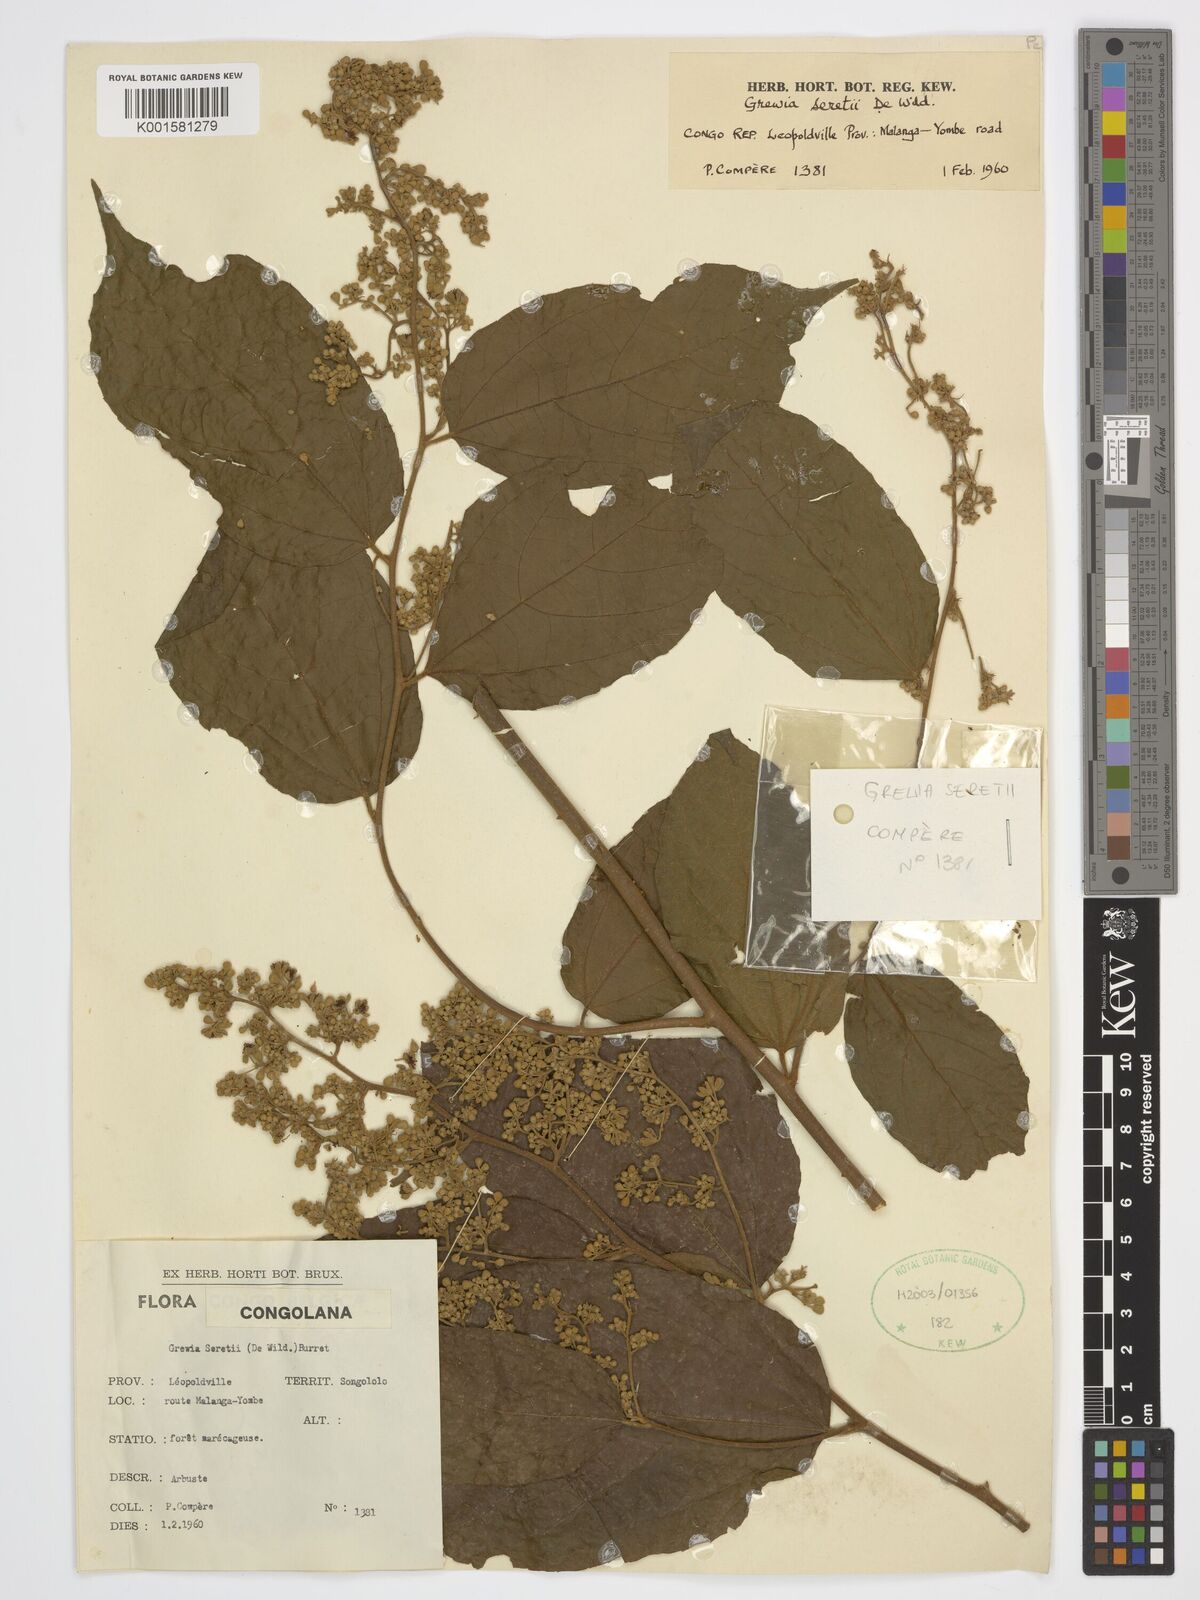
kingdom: Plantae
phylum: Tracheophyta
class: Magnoliopsida
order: Malvales
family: Malvaceae
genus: Microcos
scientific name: Microcos seretii
